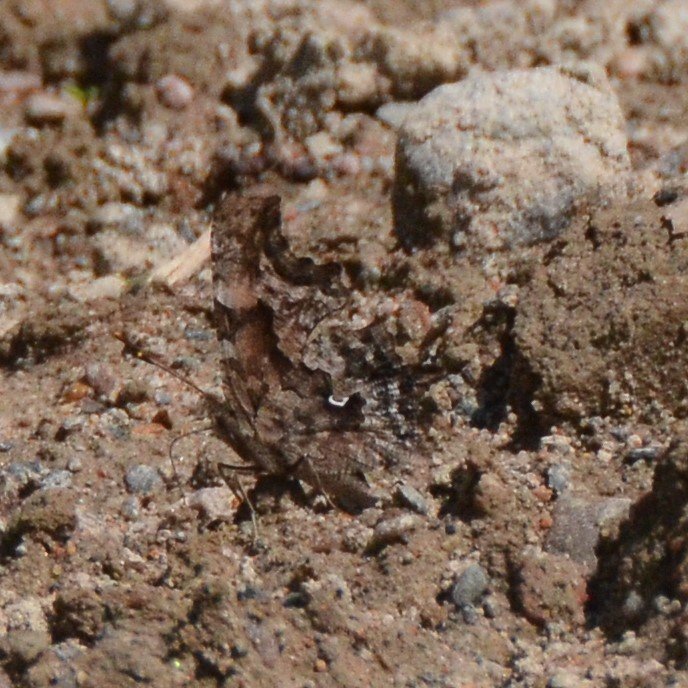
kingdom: Animalia
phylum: Arthropoda
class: Insecta
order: Lepidoptera
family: Nymphalidae
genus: Polygonia
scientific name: Polygonia faunus
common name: Green Comma
